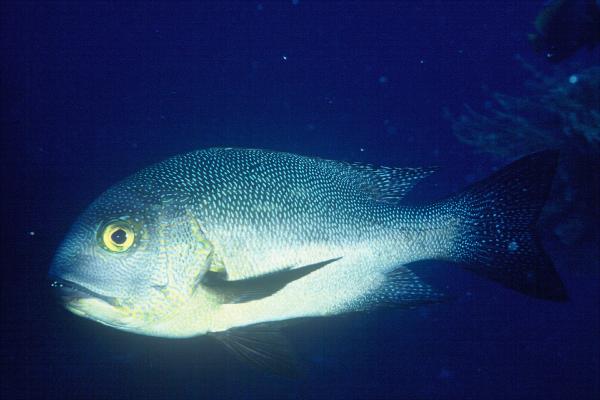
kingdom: Animalia
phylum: Chordata
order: Perciformes
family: Lutjanidae
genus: Macolor
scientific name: Macolor macularis
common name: Midnight snapper
